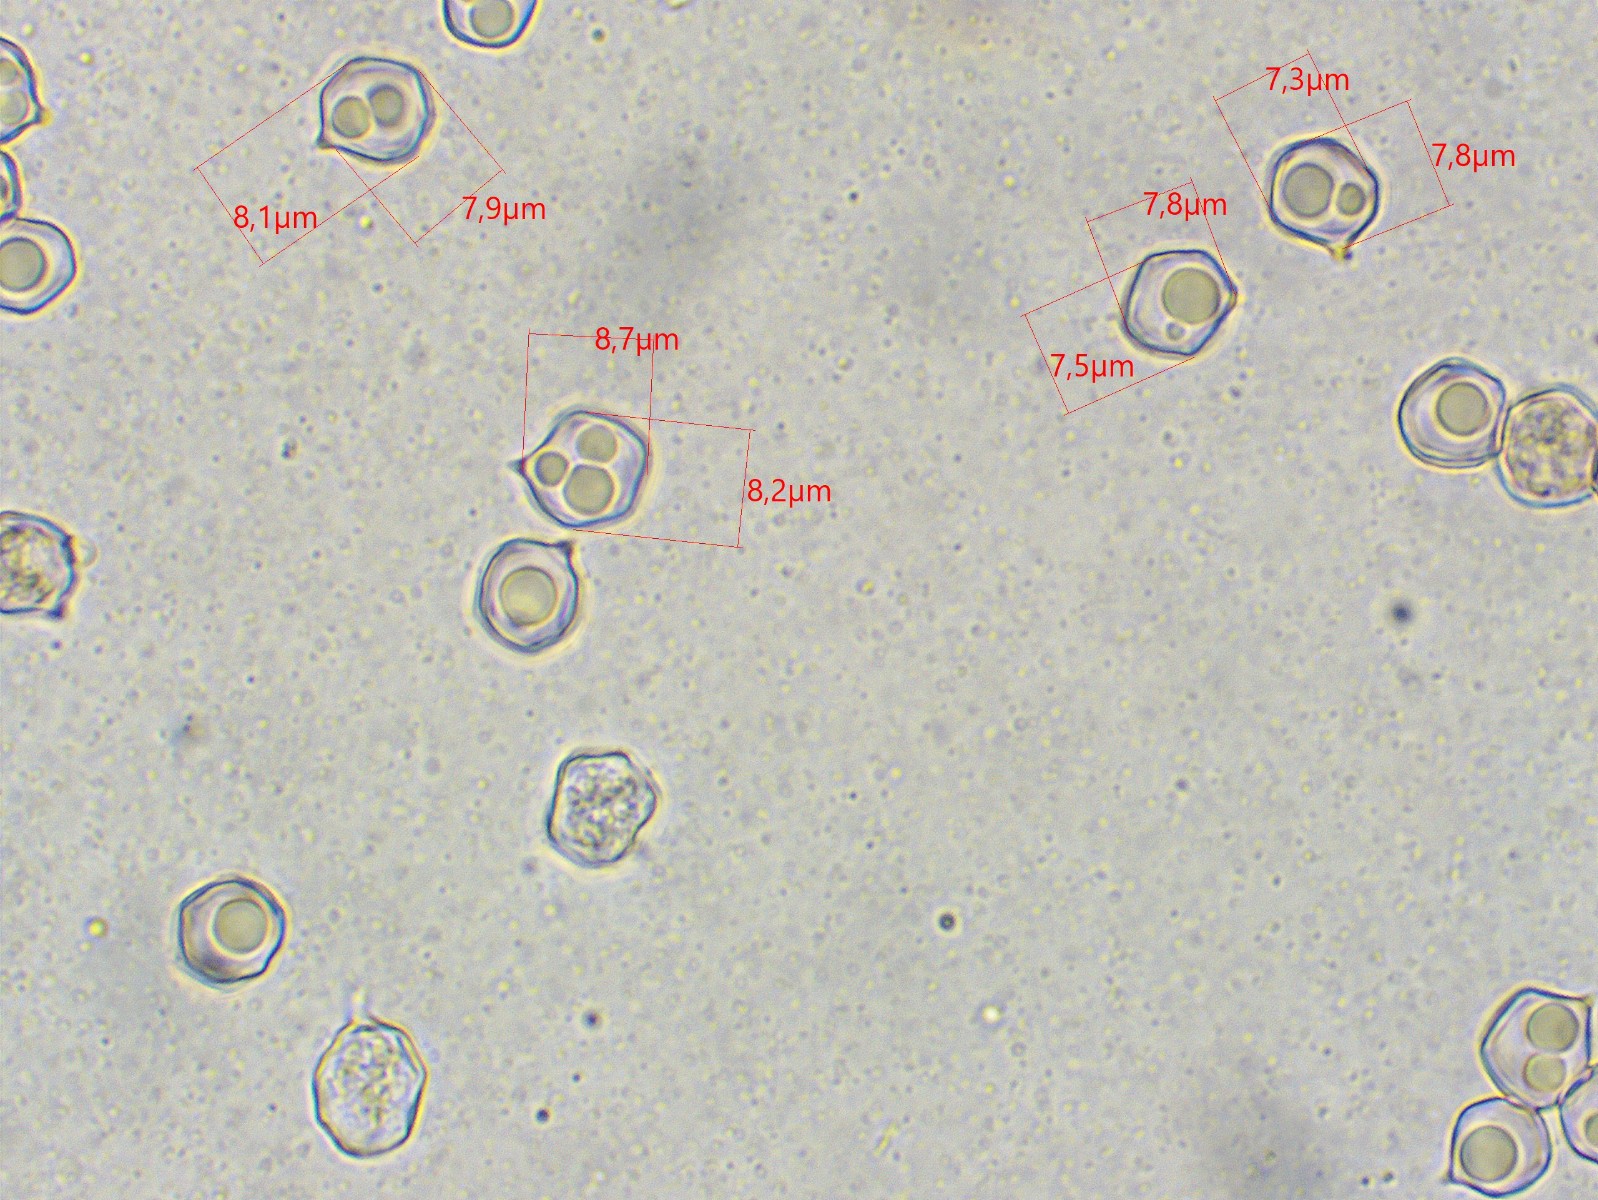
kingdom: Fungi
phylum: Basidiomycota
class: Agaricomycetes
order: Agaricales
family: Entolomataceae
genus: Entoloma
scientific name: Entoloma sericeum
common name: silkeglinsende rødblad
